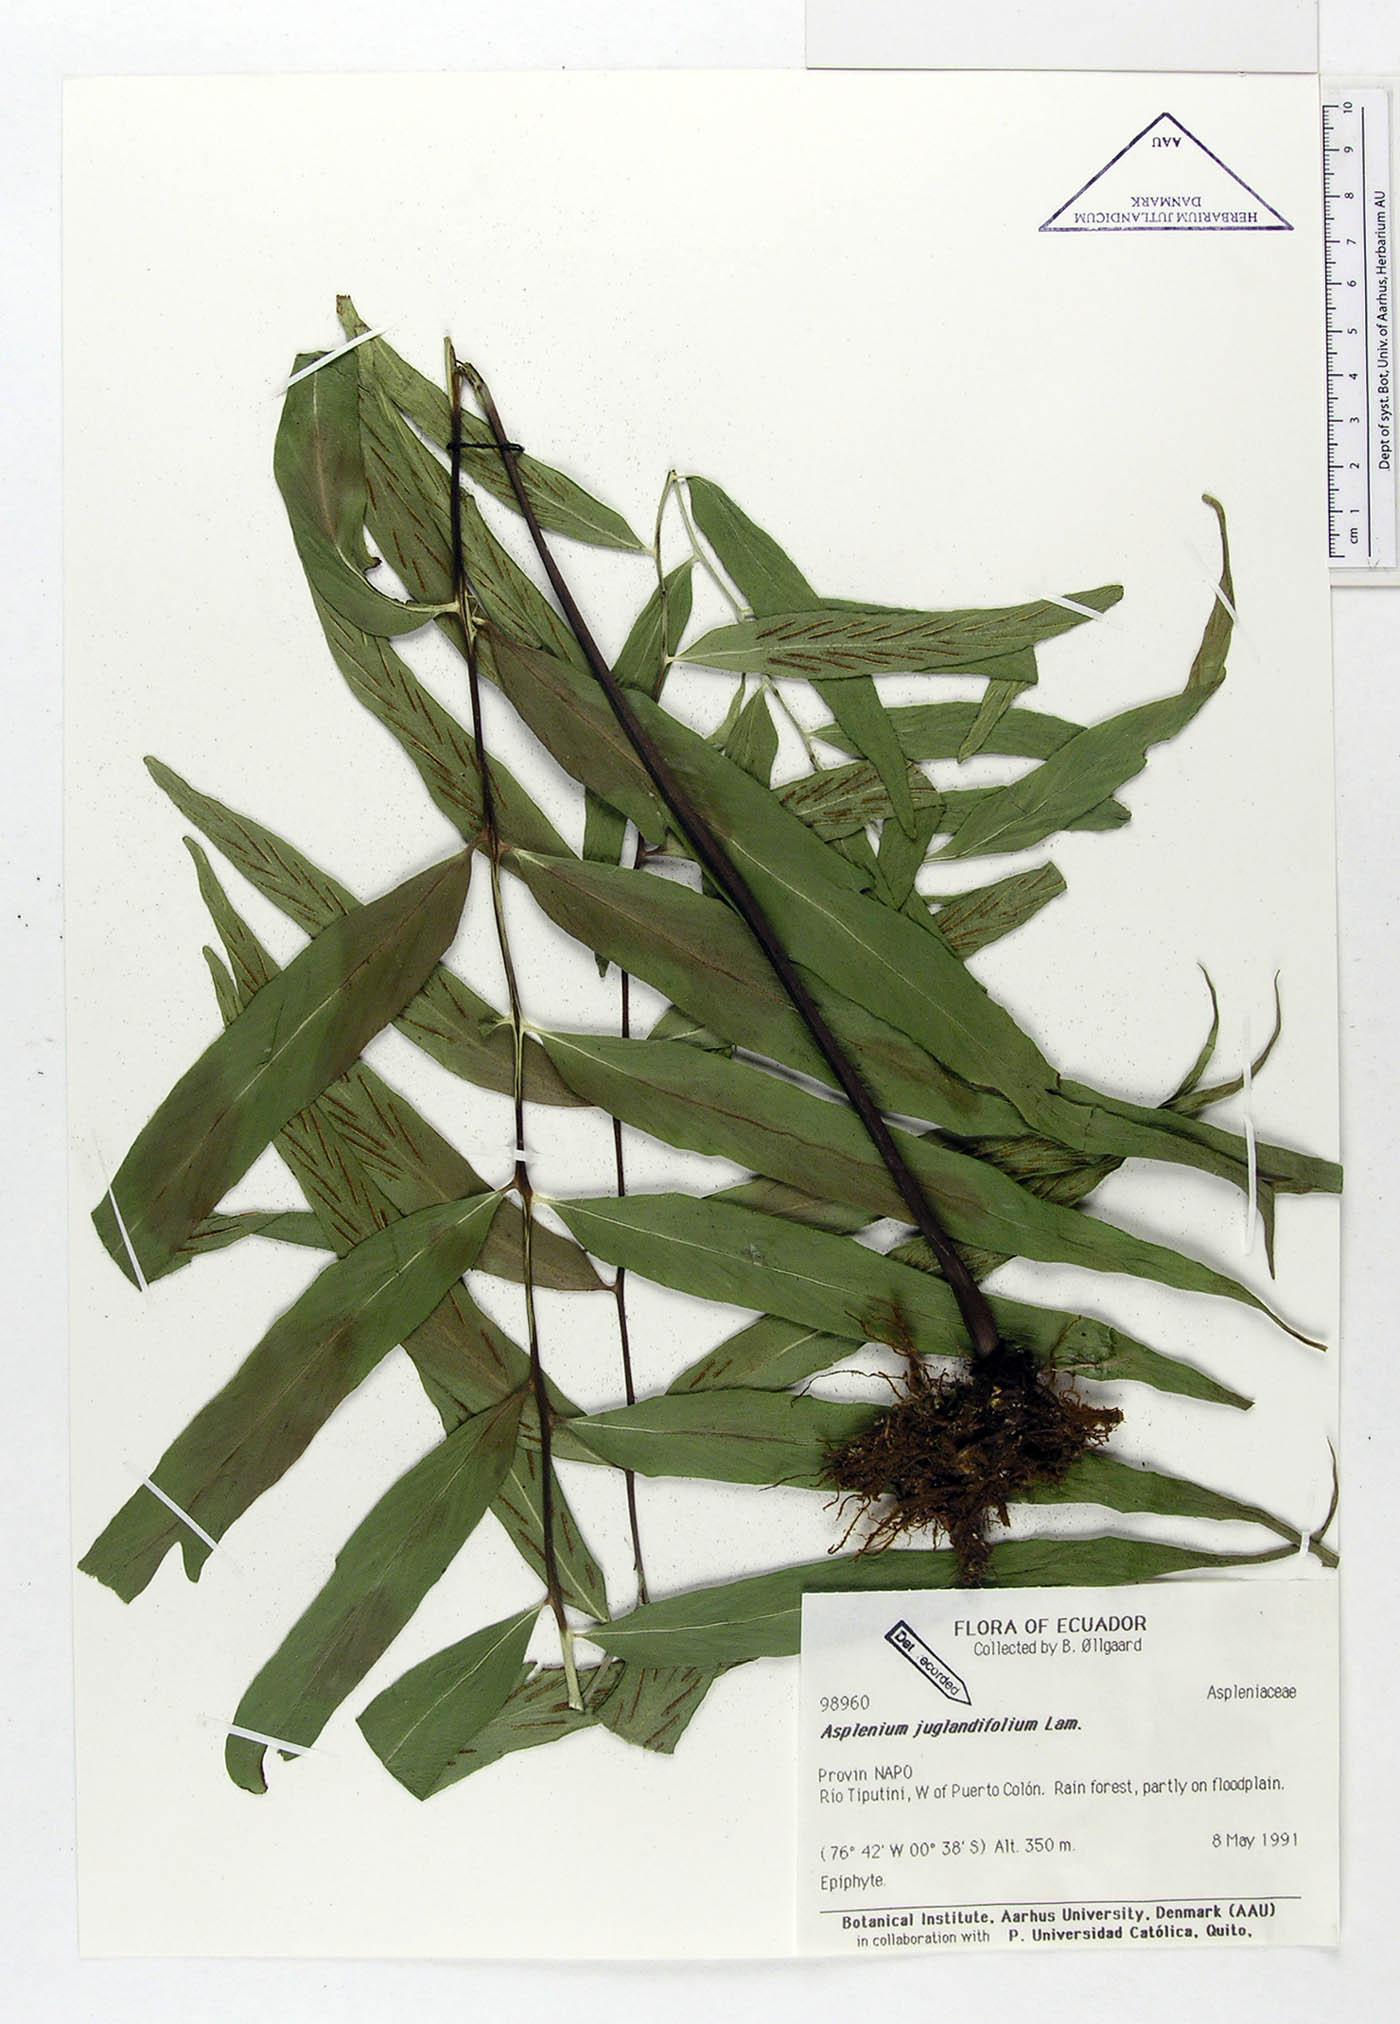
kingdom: Plantae
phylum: Tracheophyta
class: Polypodiopsida
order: Polypodiales
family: Aspleniaceae
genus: Asplenium
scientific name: Asplenium juglandifolium
